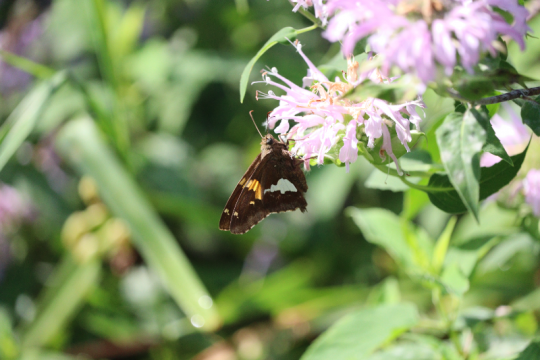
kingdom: Animalia
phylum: Arthropoda
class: Insecta
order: Lepidoptera
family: Hesperiidae
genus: Epargyreus
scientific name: Epargyreus clarus
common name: Silver-spotted Skipper
